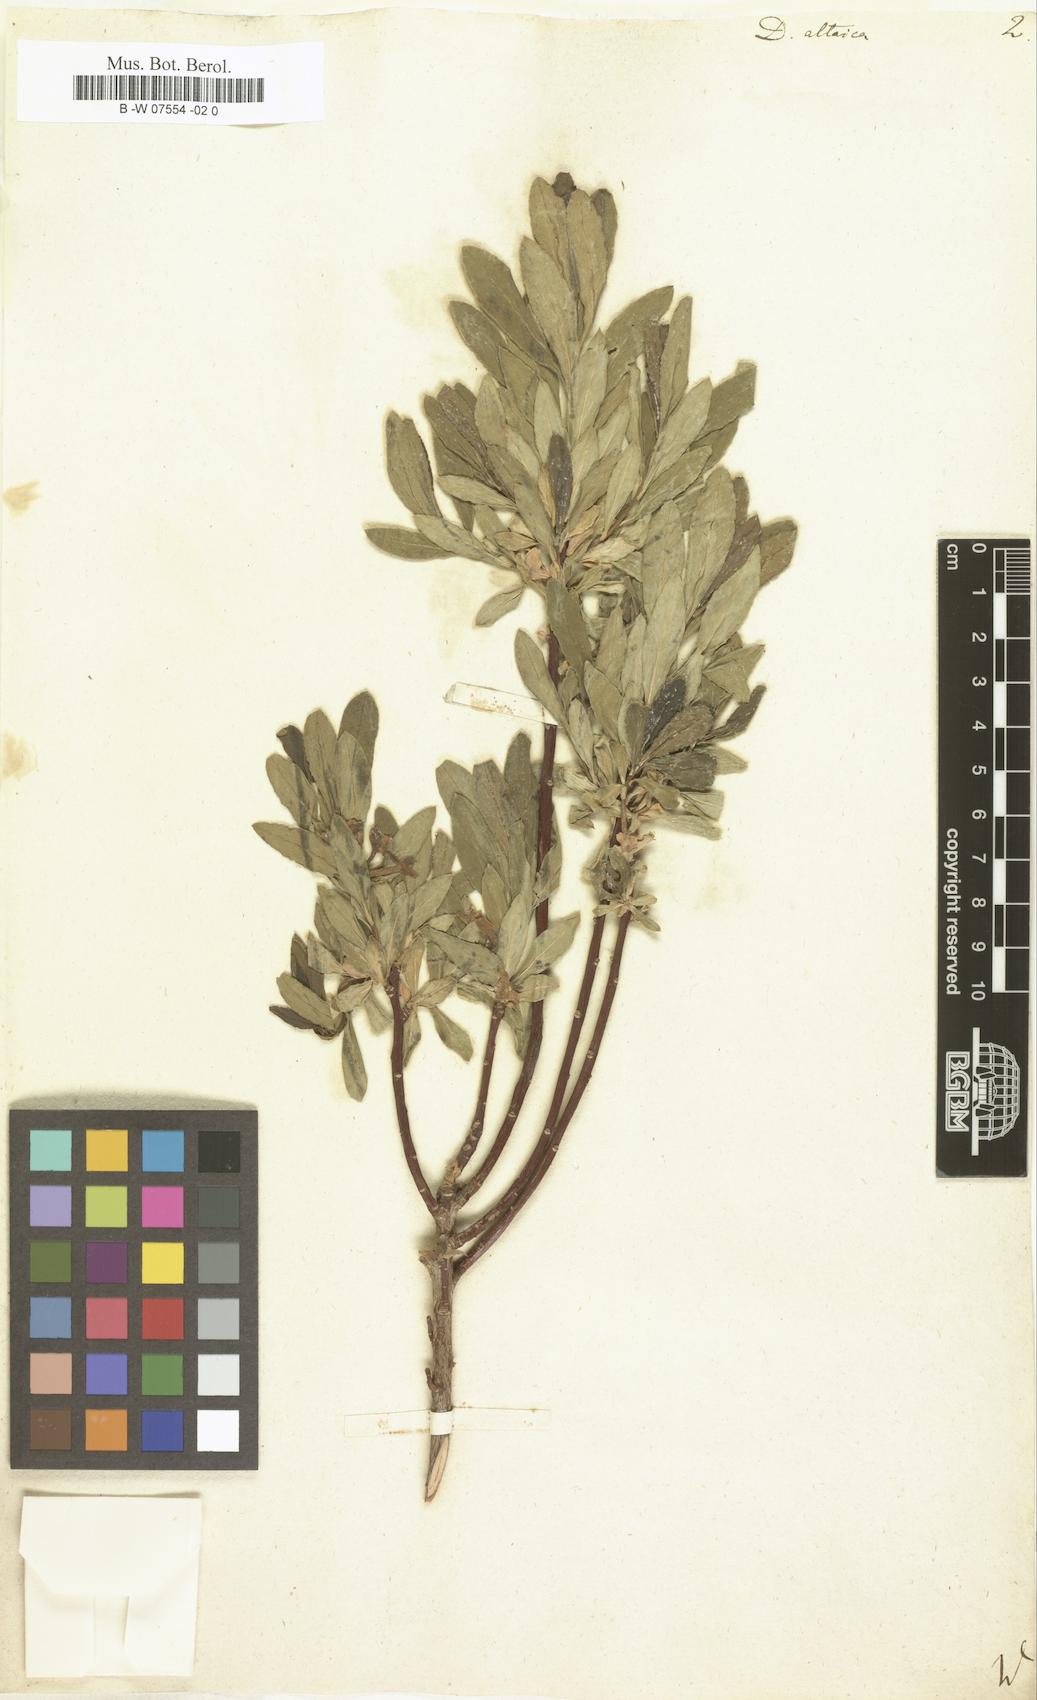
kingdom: Plantae
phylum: Tracheophyta
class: Magnoliopsida
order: Malvales
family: Thymelaeaceae
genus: Daphne
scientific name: Daphne altaica
